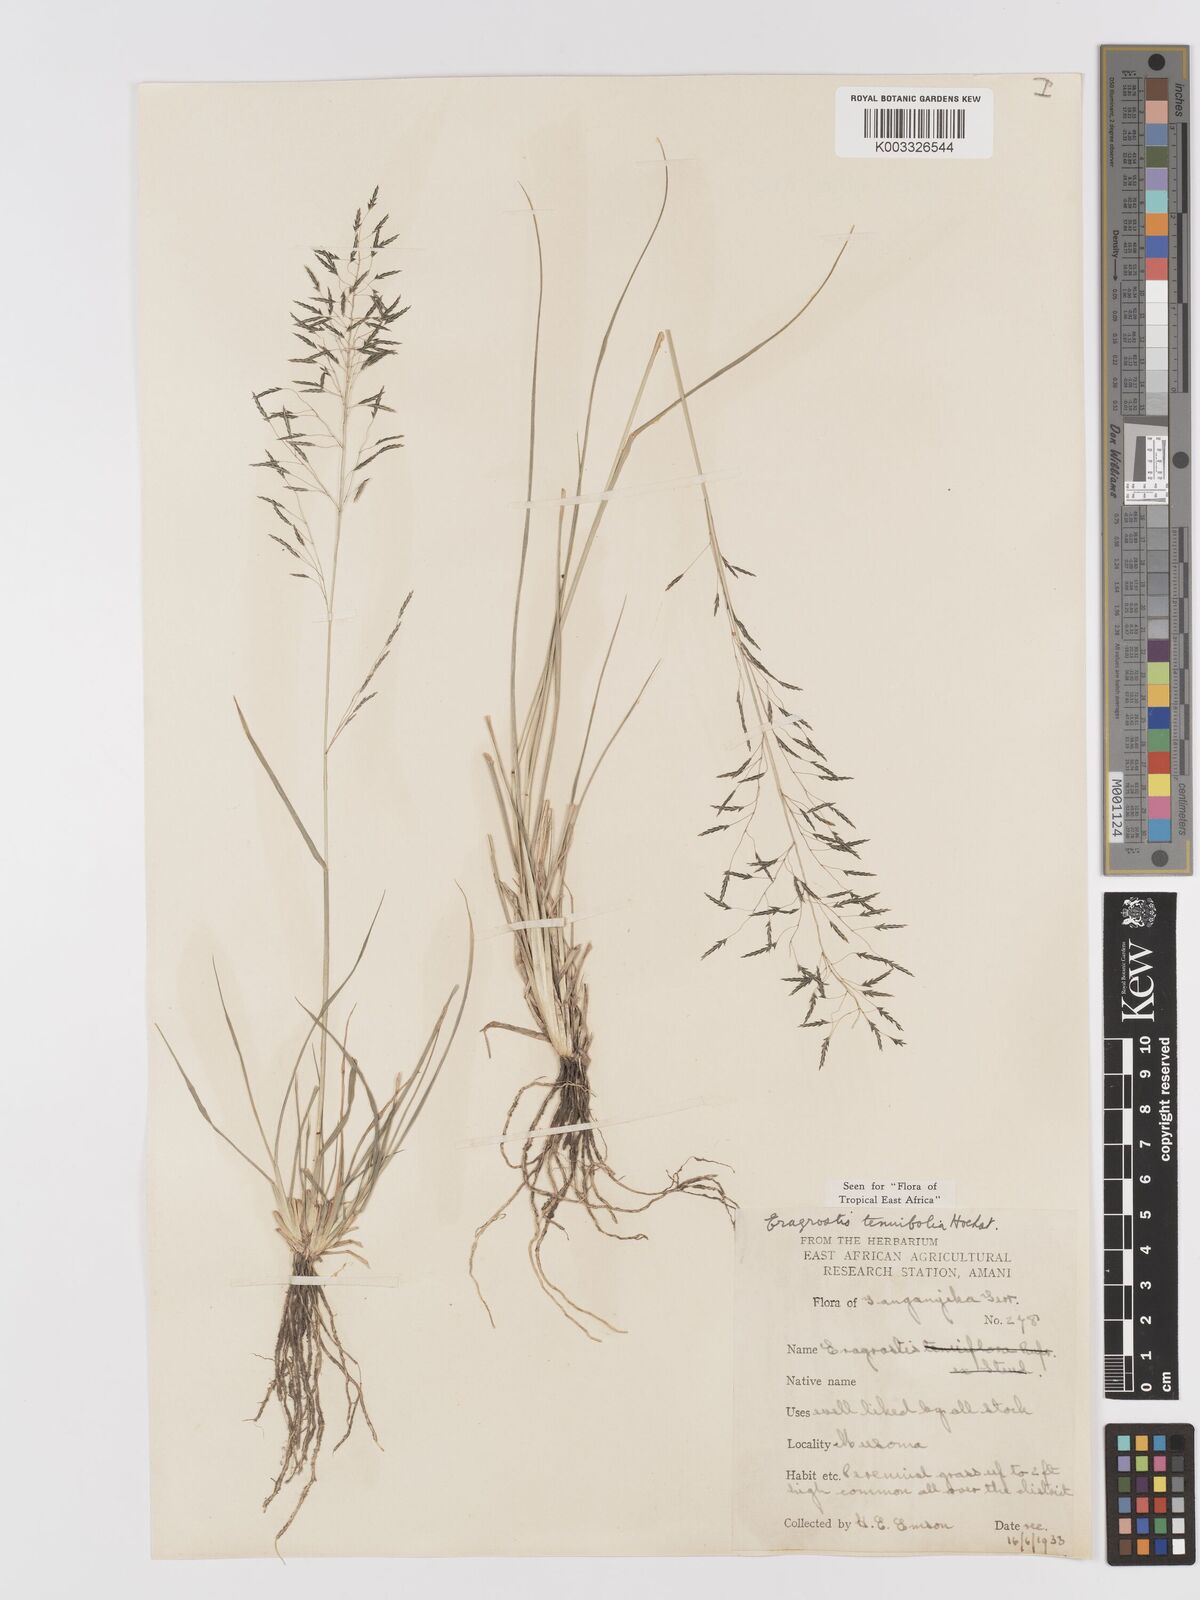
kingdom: Plantae
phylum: Tracheophyta
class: Liliopsida
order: Poales
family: Poaceae
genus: Eragrostis
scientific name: Eragrostis tenuifolia
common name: Elastic grass
